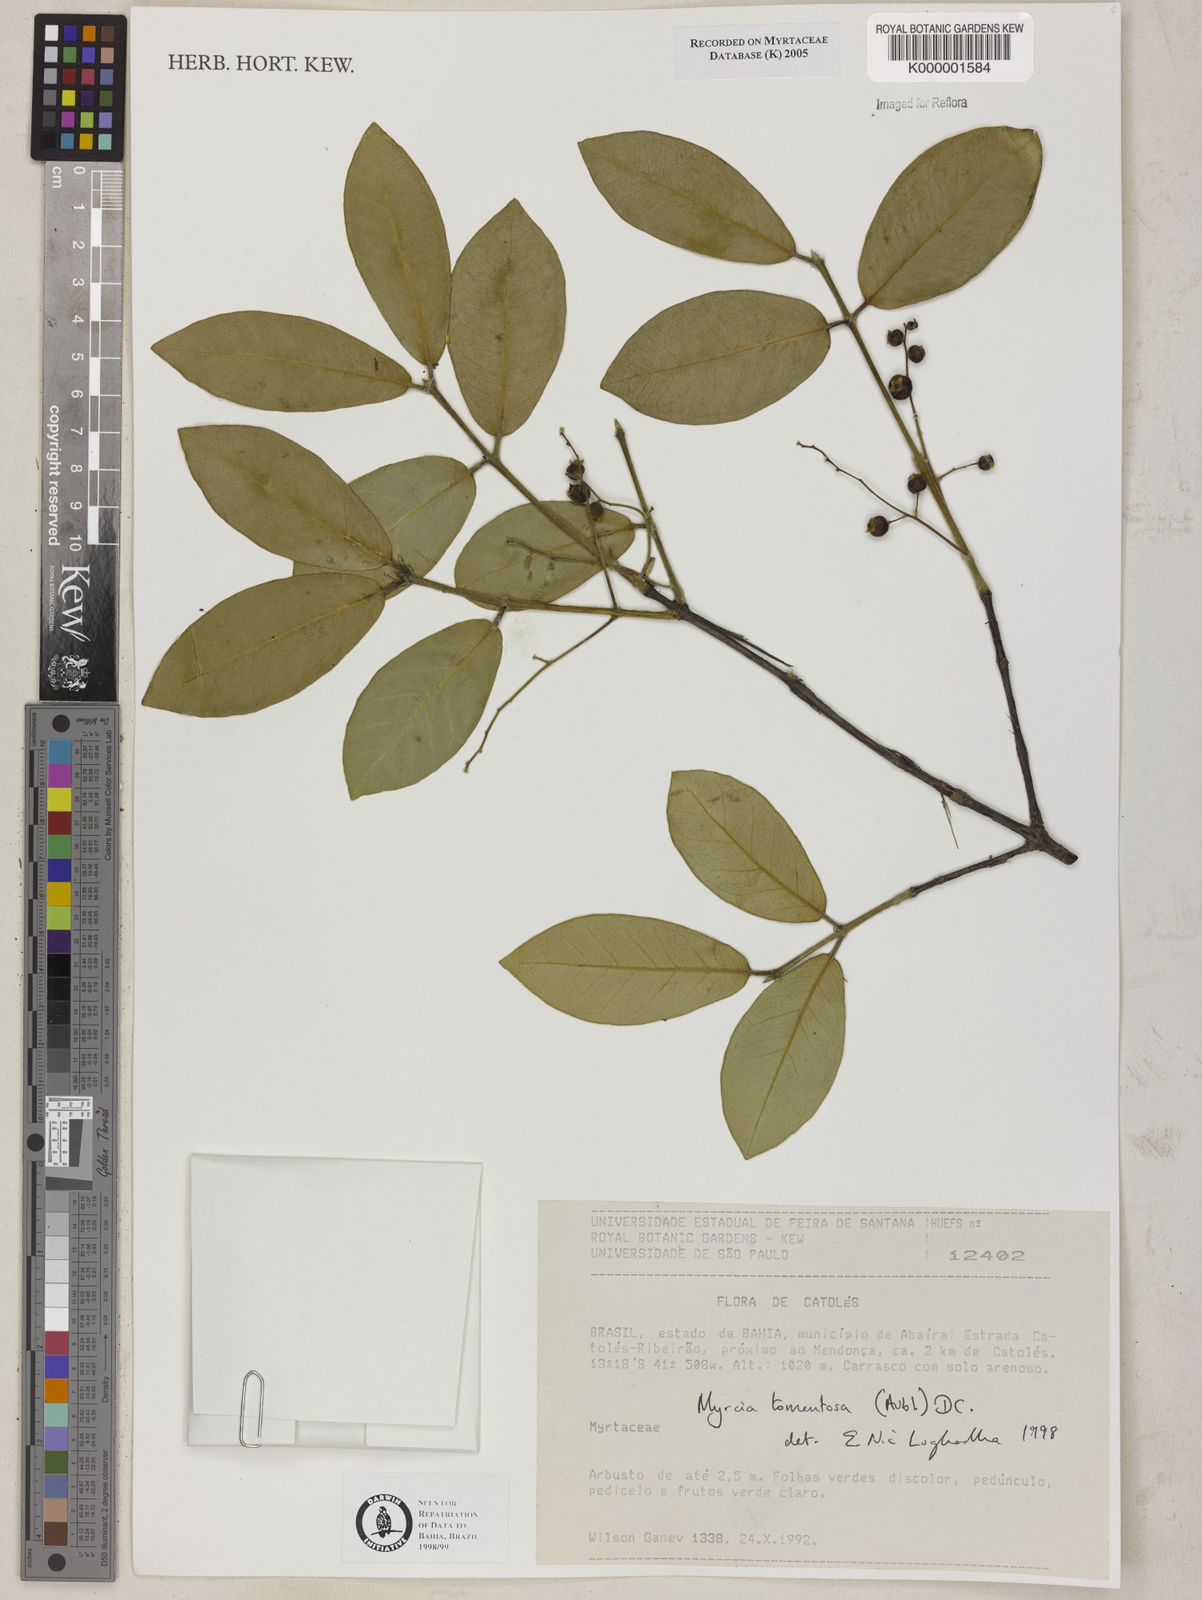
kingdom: Plantae
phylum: Tracheophyta
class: Magnoliopsida
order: Myrtales
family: Myrtaceae
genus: Myrcia
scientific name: Myrcia tomentosa
